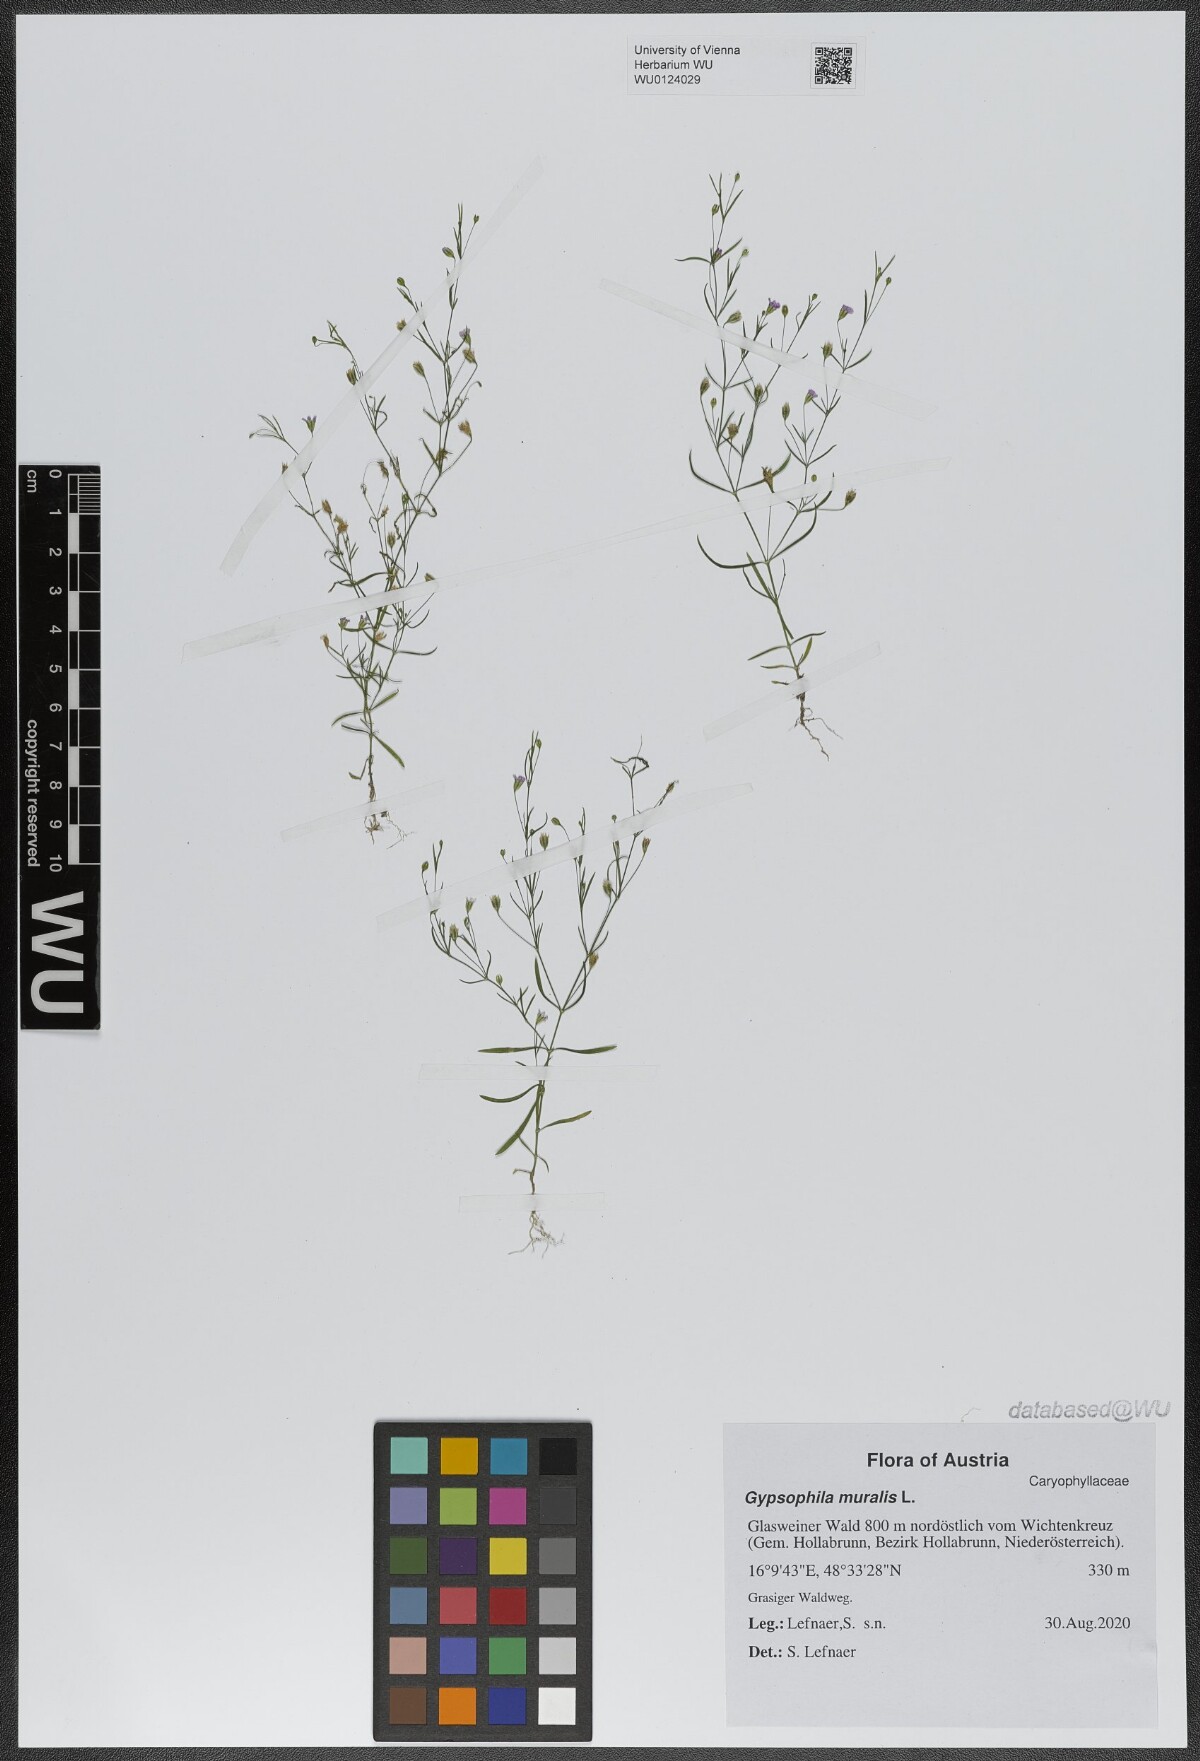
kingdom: Plantae
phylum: Tracheophyta
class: Magnoliopsida
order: Caryophyllales
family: Caryophyllaceae
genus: Psammophiliella
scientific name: Psammophiliella muralis
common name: Cushion baby's-breath
